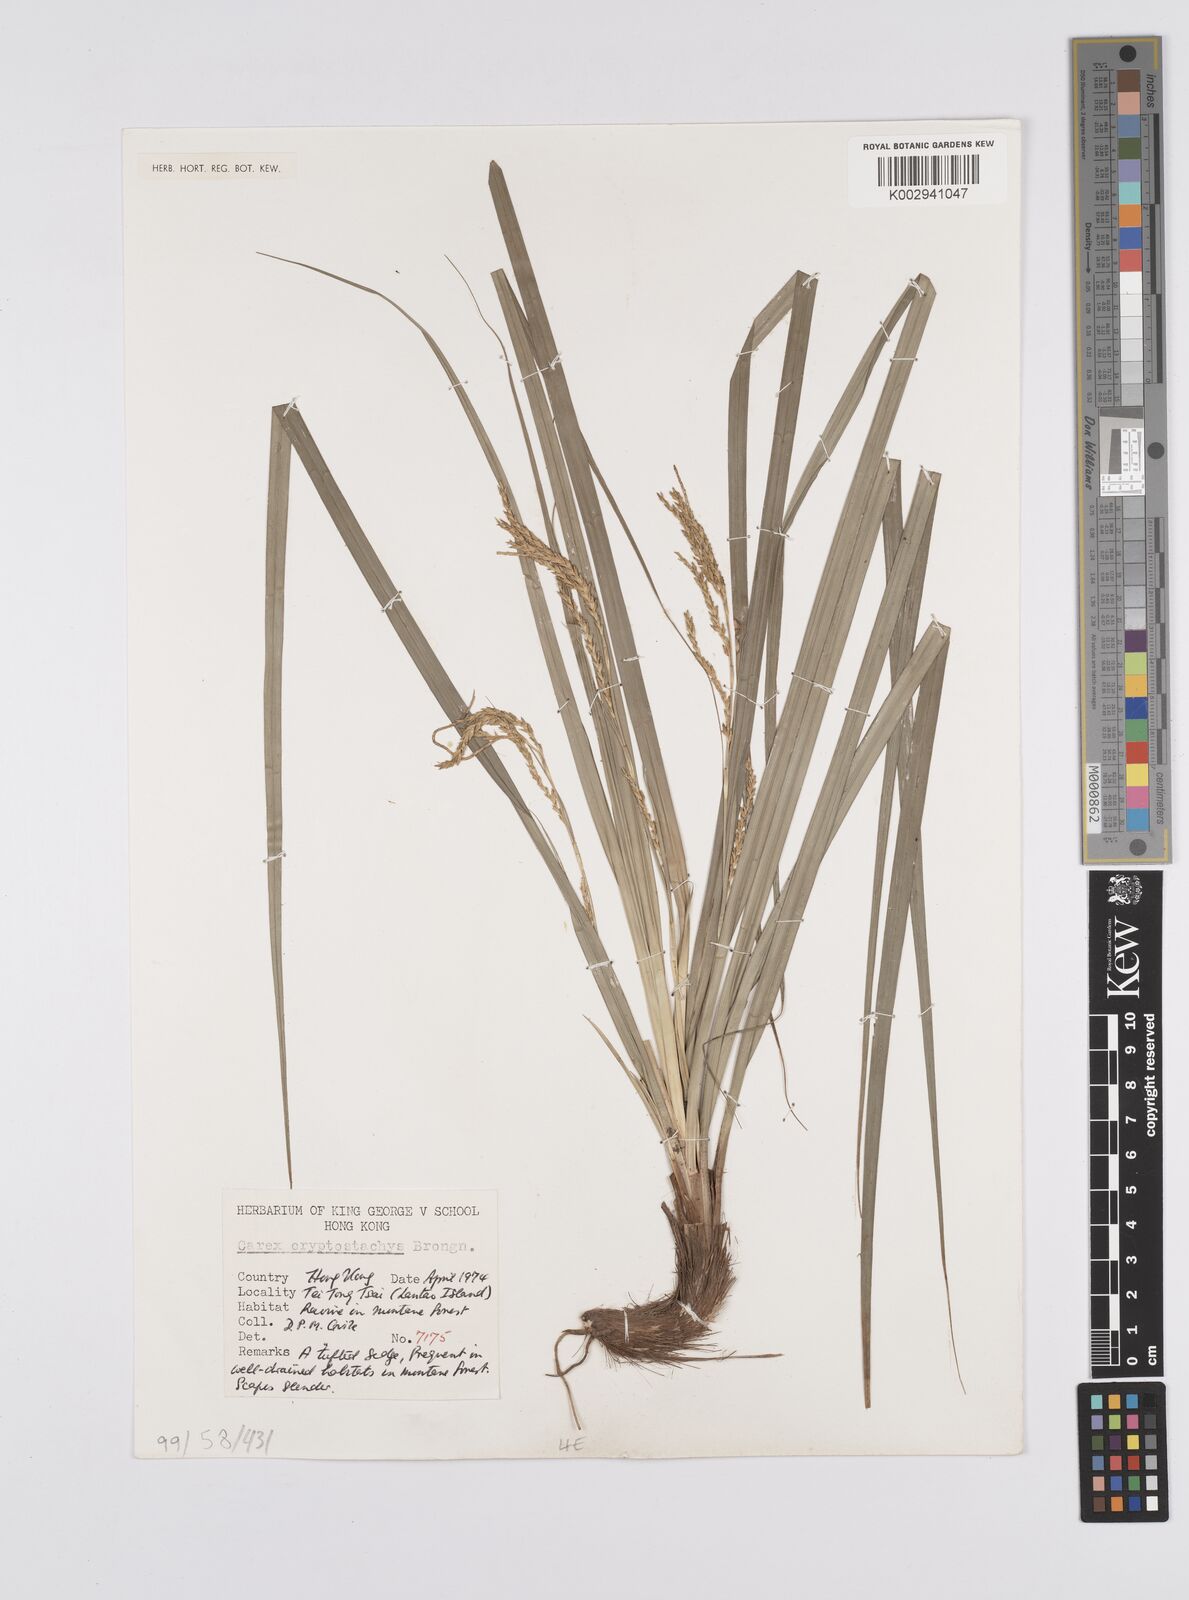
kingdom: Plantae
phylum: Tracheophyta
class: Liliopsida
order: Poales
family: Cyperaceae
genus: Carex
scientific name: Carex cryptostachys
